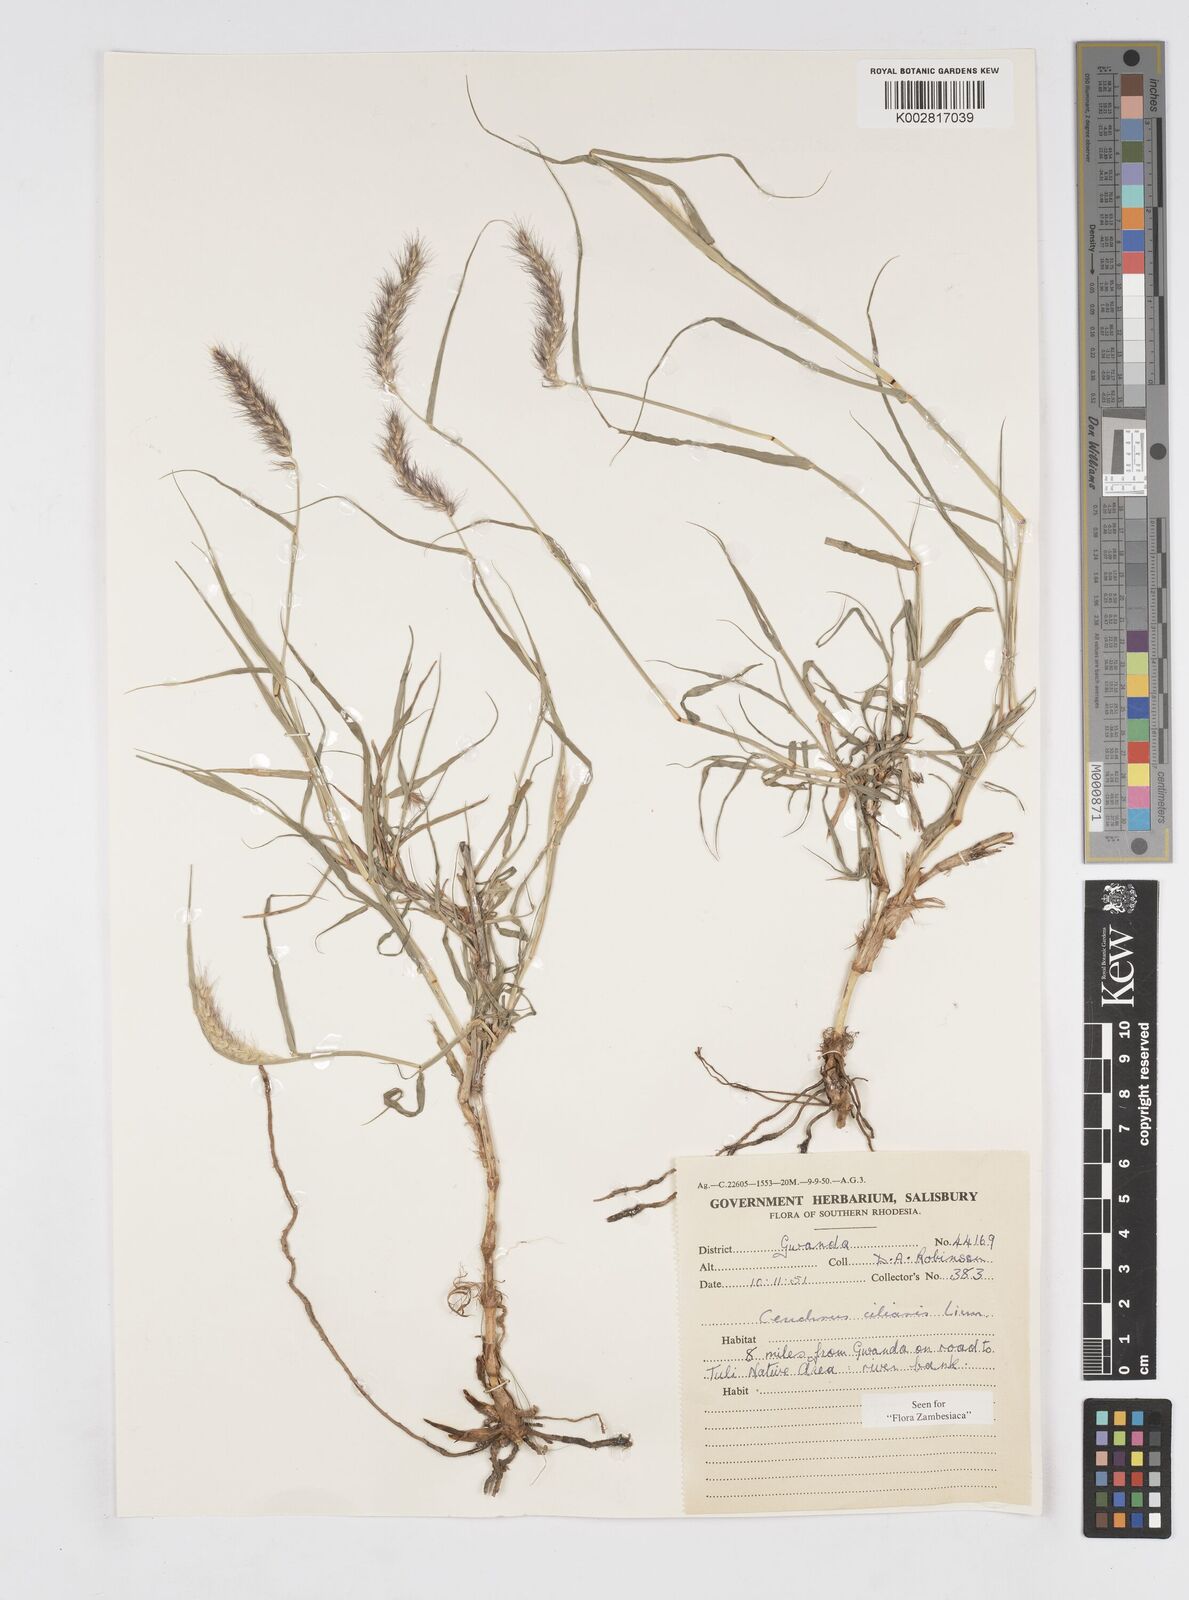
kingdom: Plantae
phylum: Tracheophyta
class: Liliopsida
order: Poales
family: Poaceae
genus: Cenchrus
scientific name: Cenchrus ciliaris
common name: Buffelgrass
